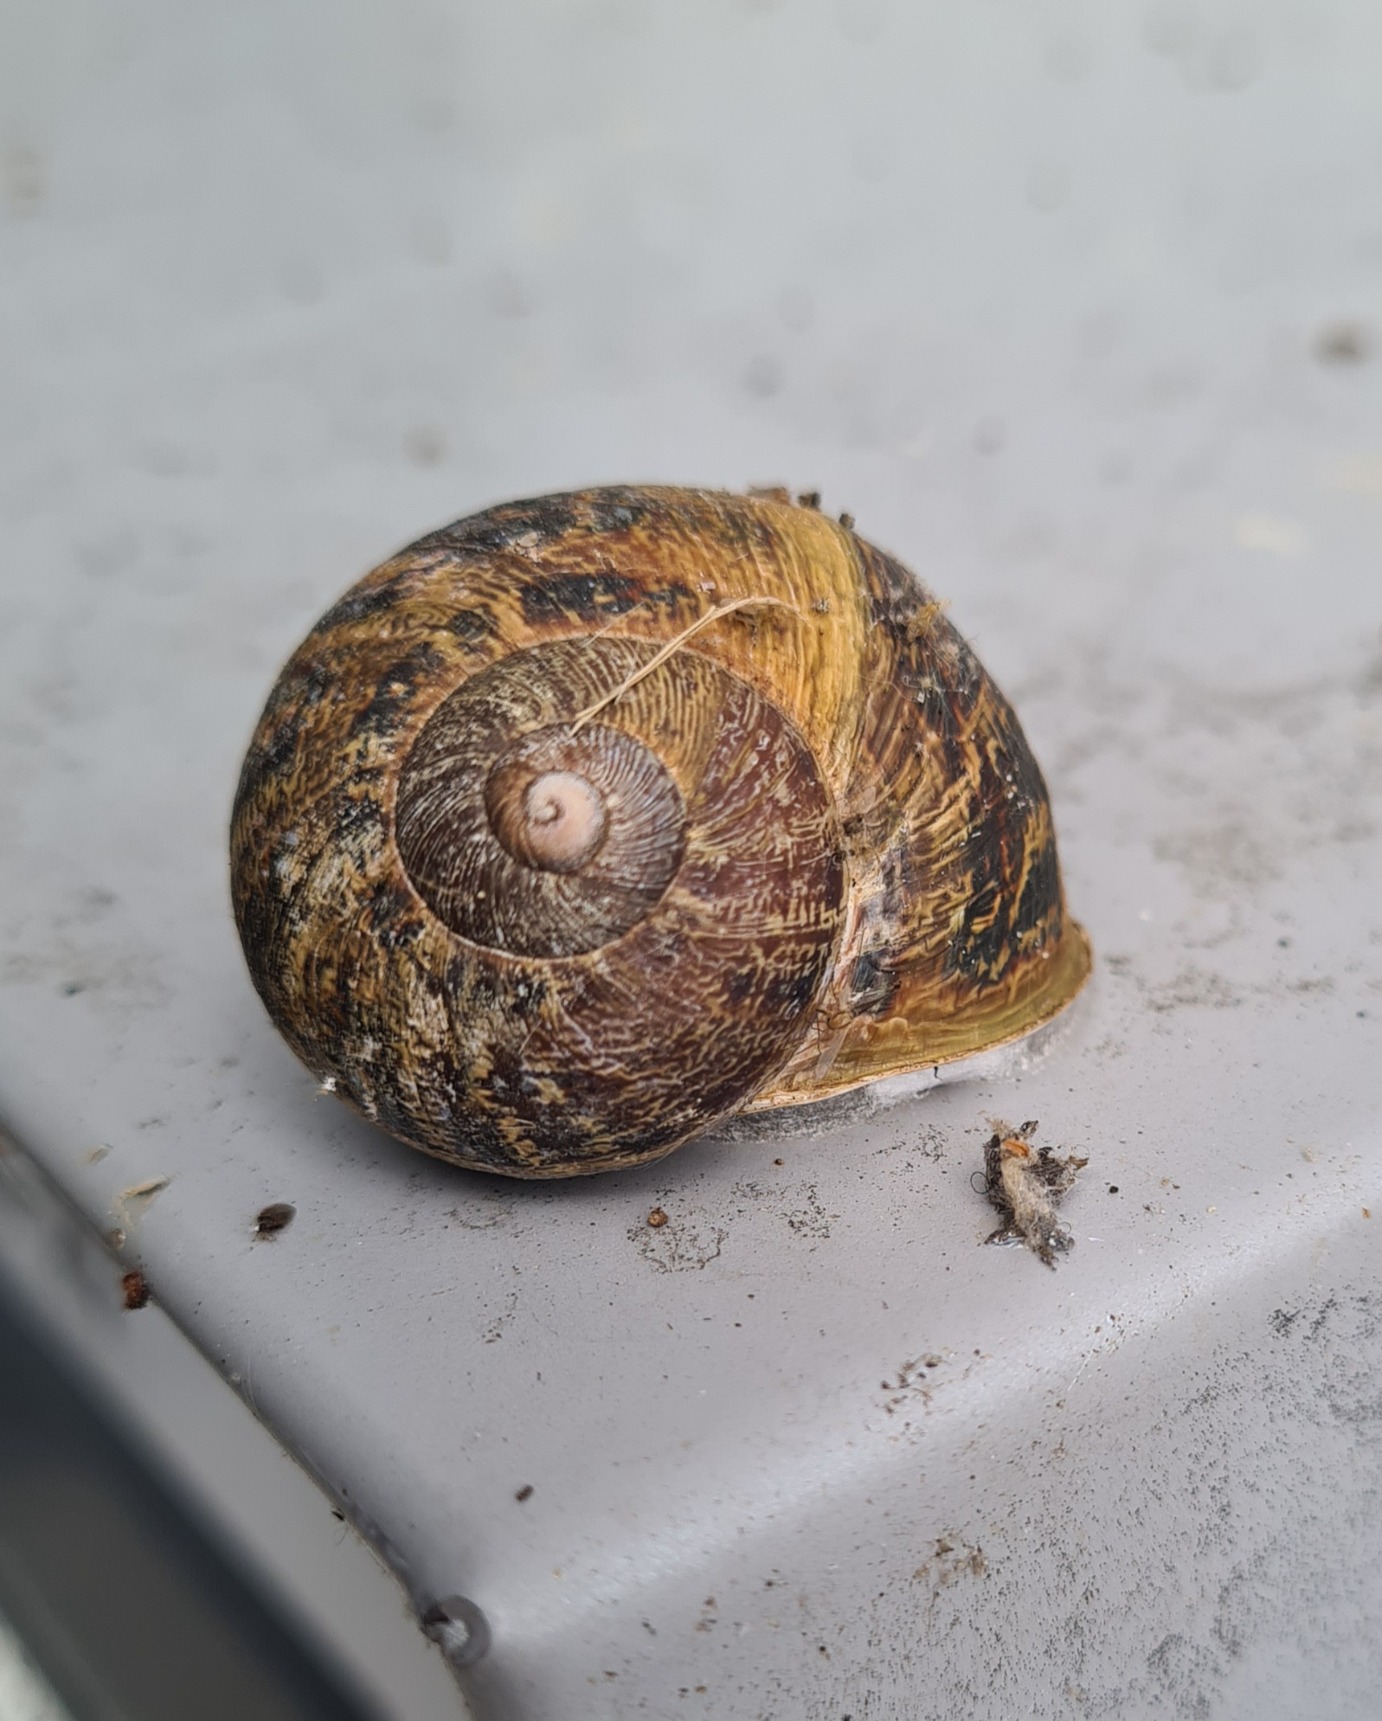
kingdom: Animalia
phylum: Mollusca
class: Gastropoda
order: Stylommatophora
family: Helicidae
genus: Cornu
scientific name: Cornu aspersum
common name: Plettet voldsnegl
